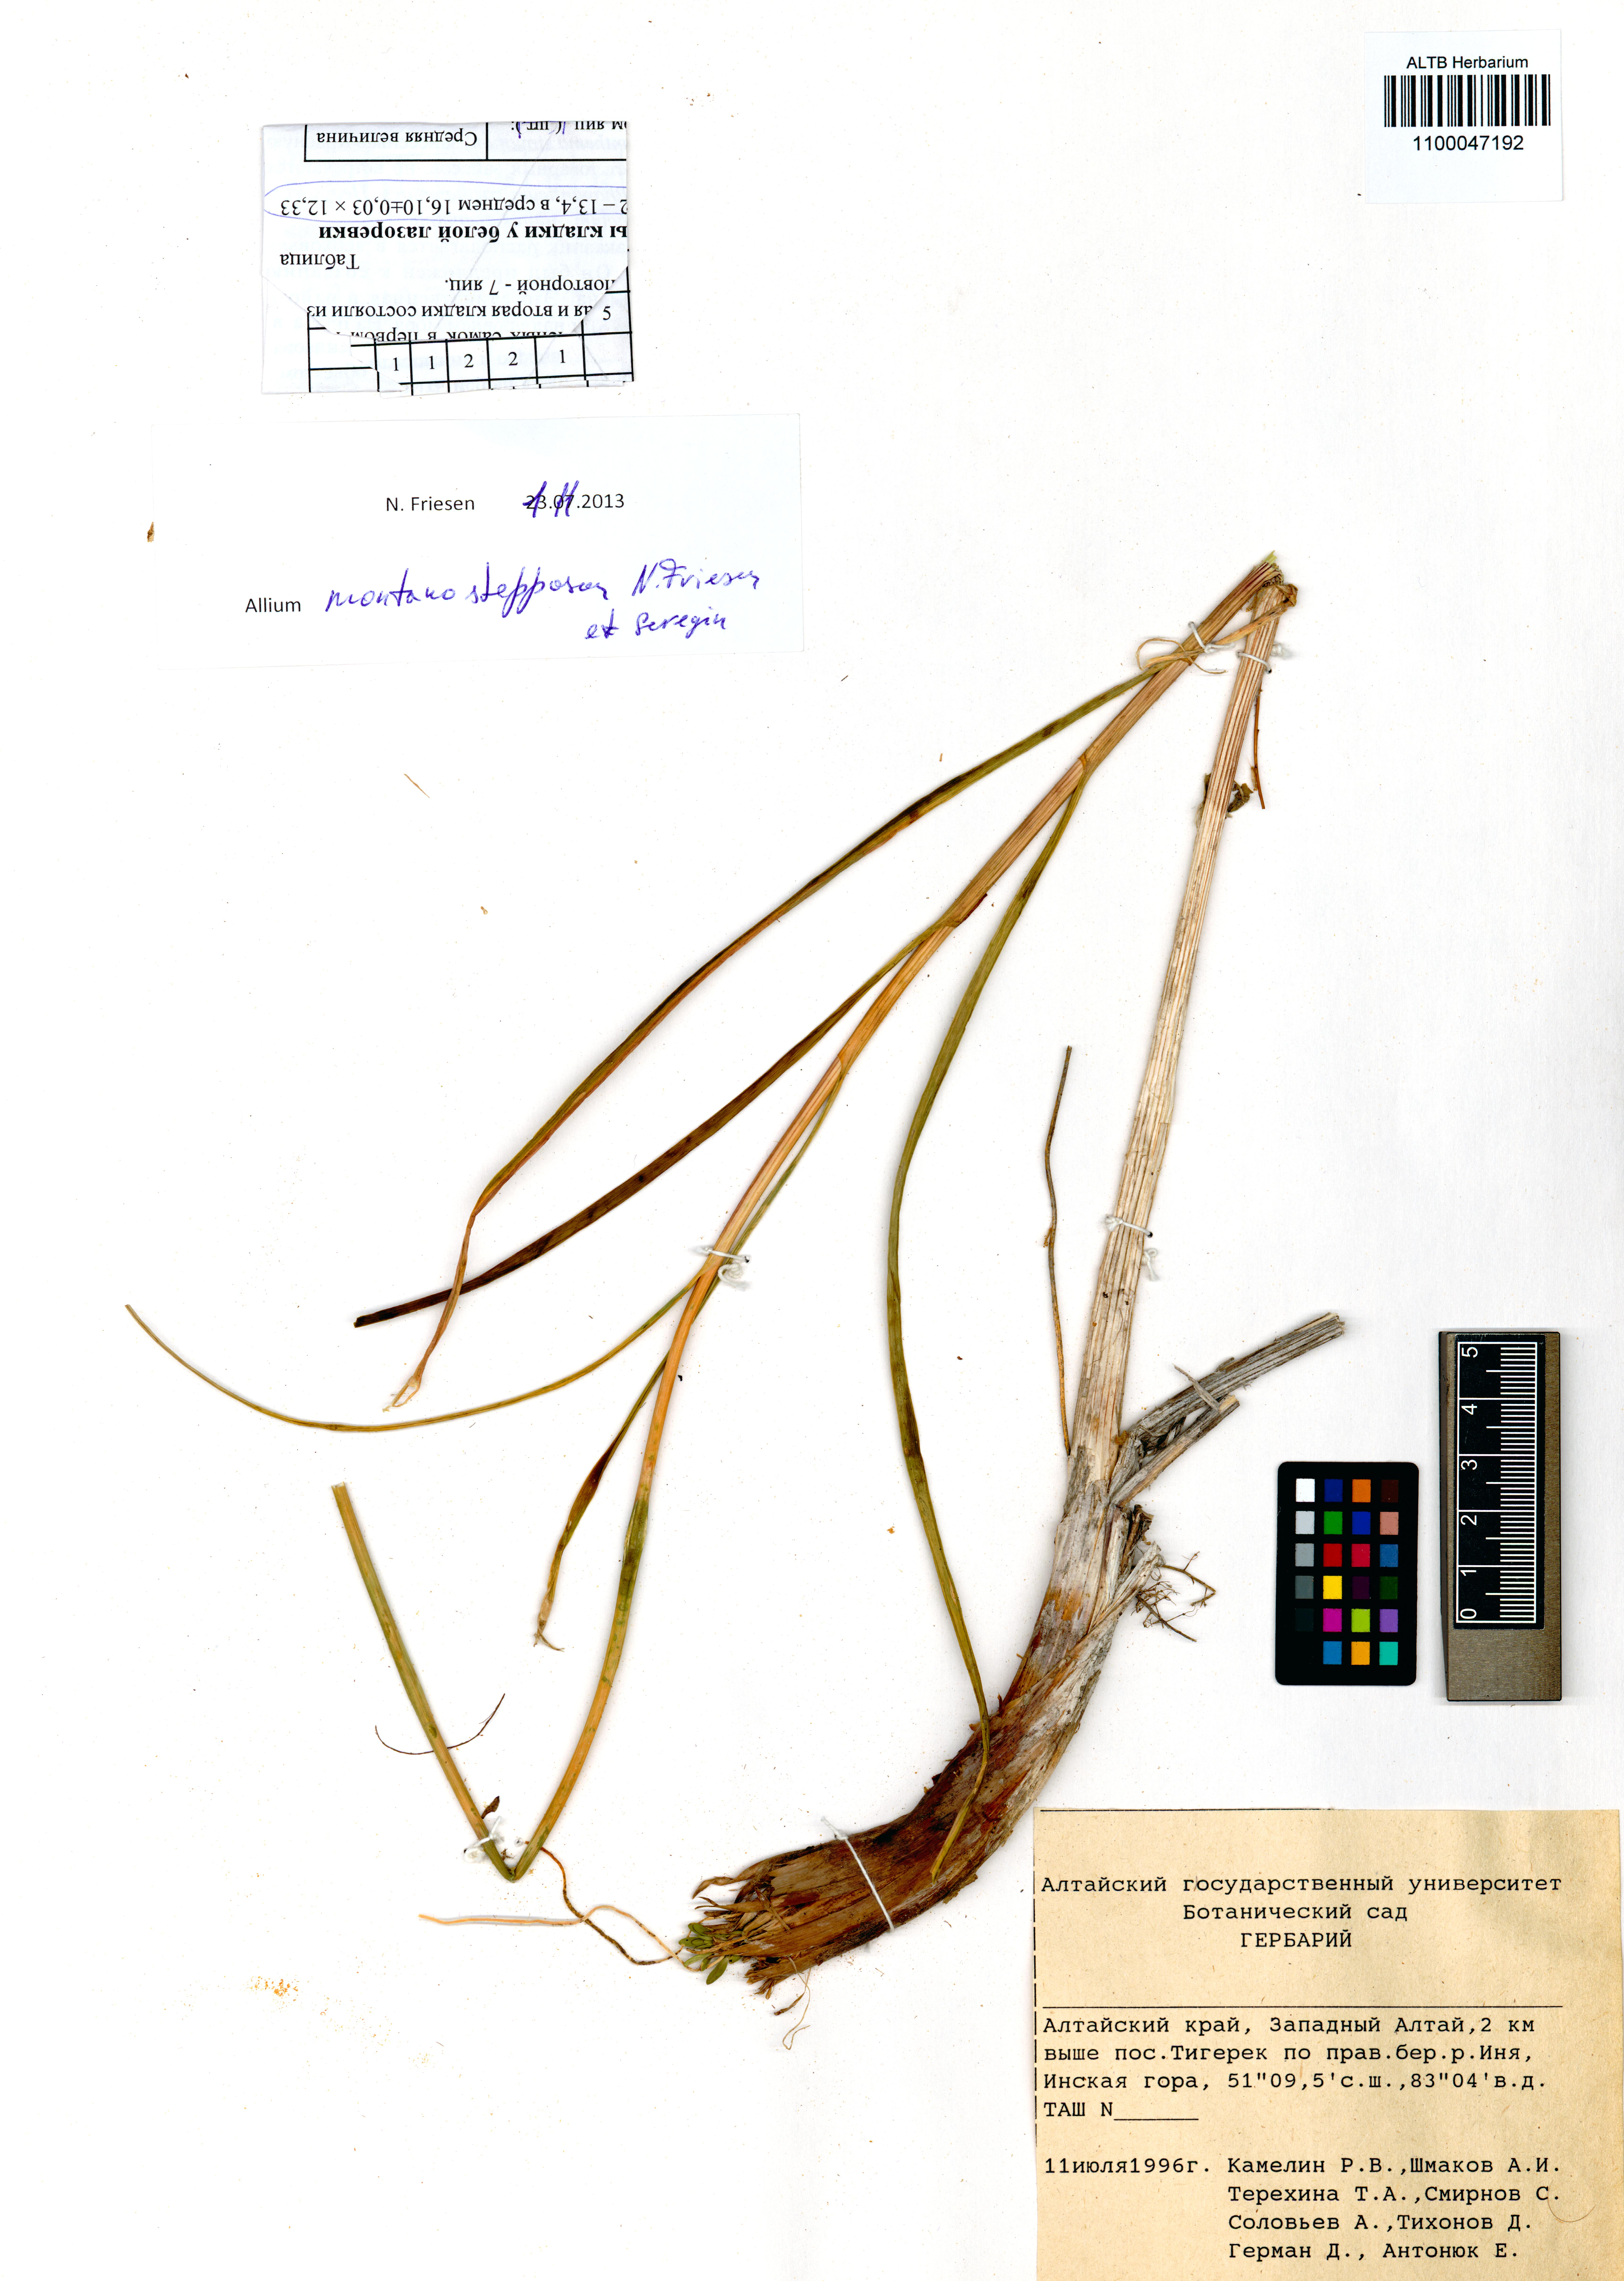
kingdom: Plantae
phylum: Tracheophyta
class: Liliopsida
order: Asparagales
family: Amaryllidaceae
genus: Allium
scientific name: Allium montanostepposum
